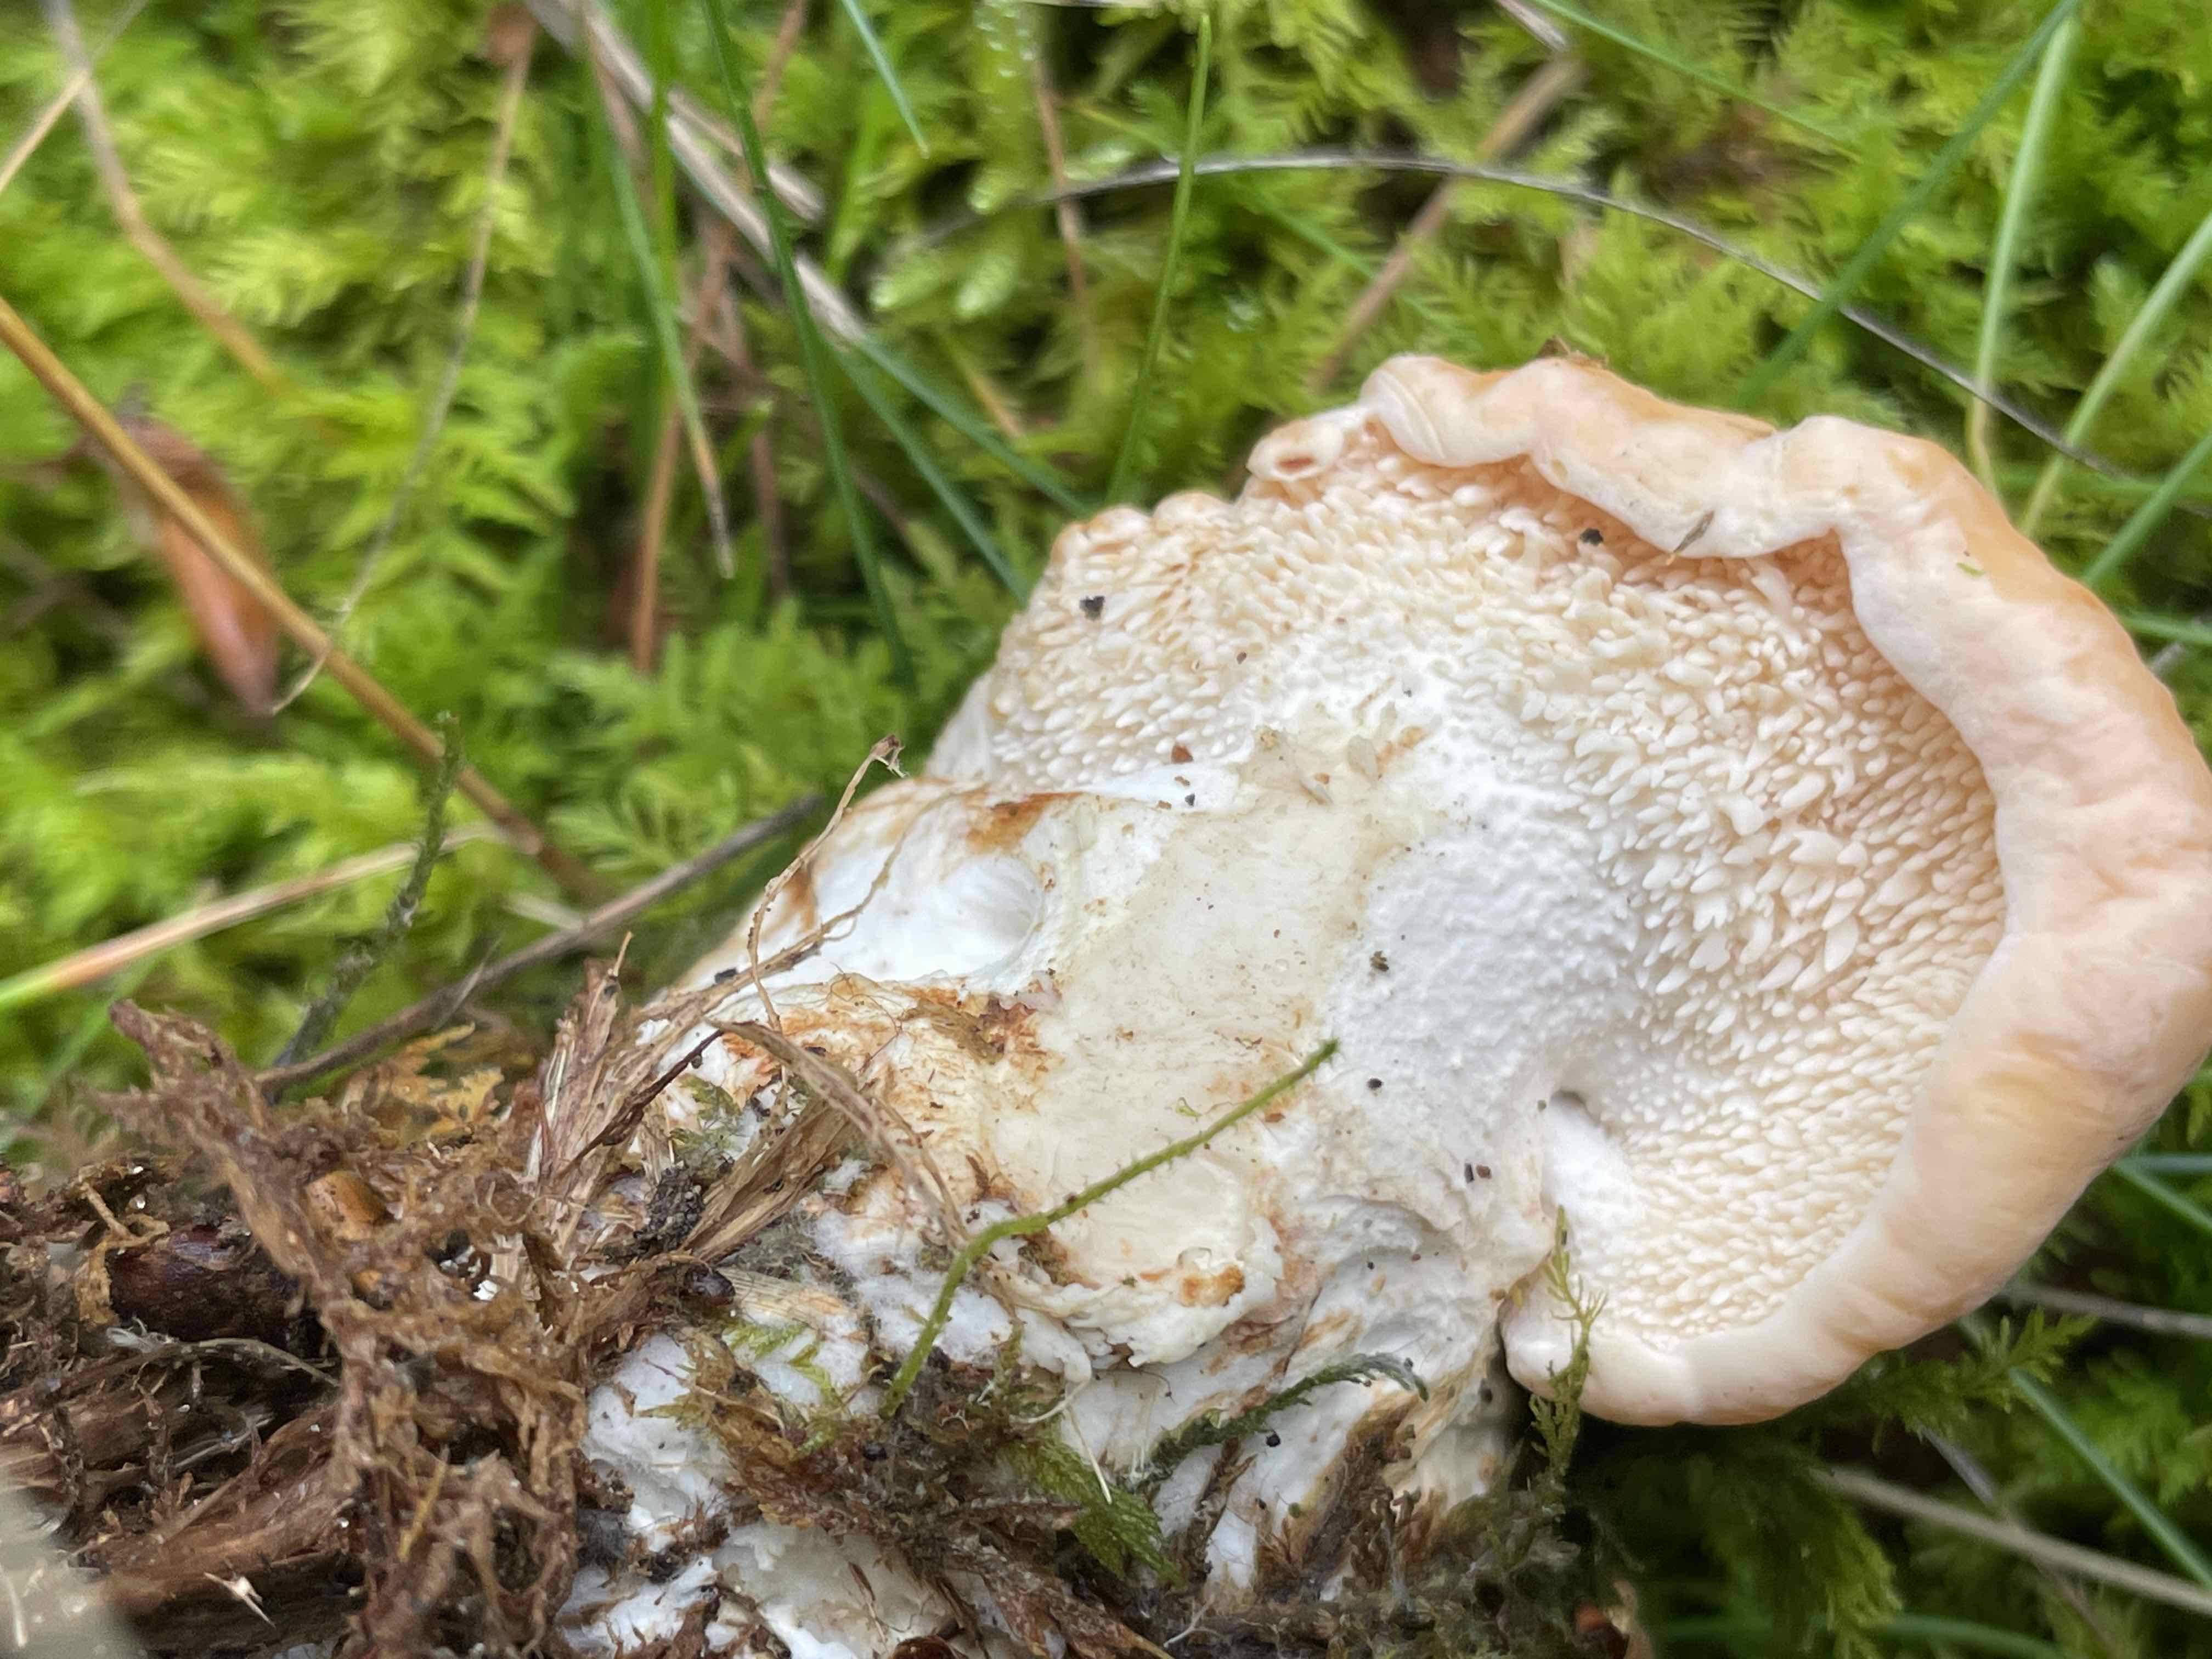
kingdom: Fungi
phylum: Basidiomycota
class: Agaricomycetes
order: Cantharellales
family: Hydnaceae
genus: Hydnum
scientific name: Hydnum
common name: pigsvamp
